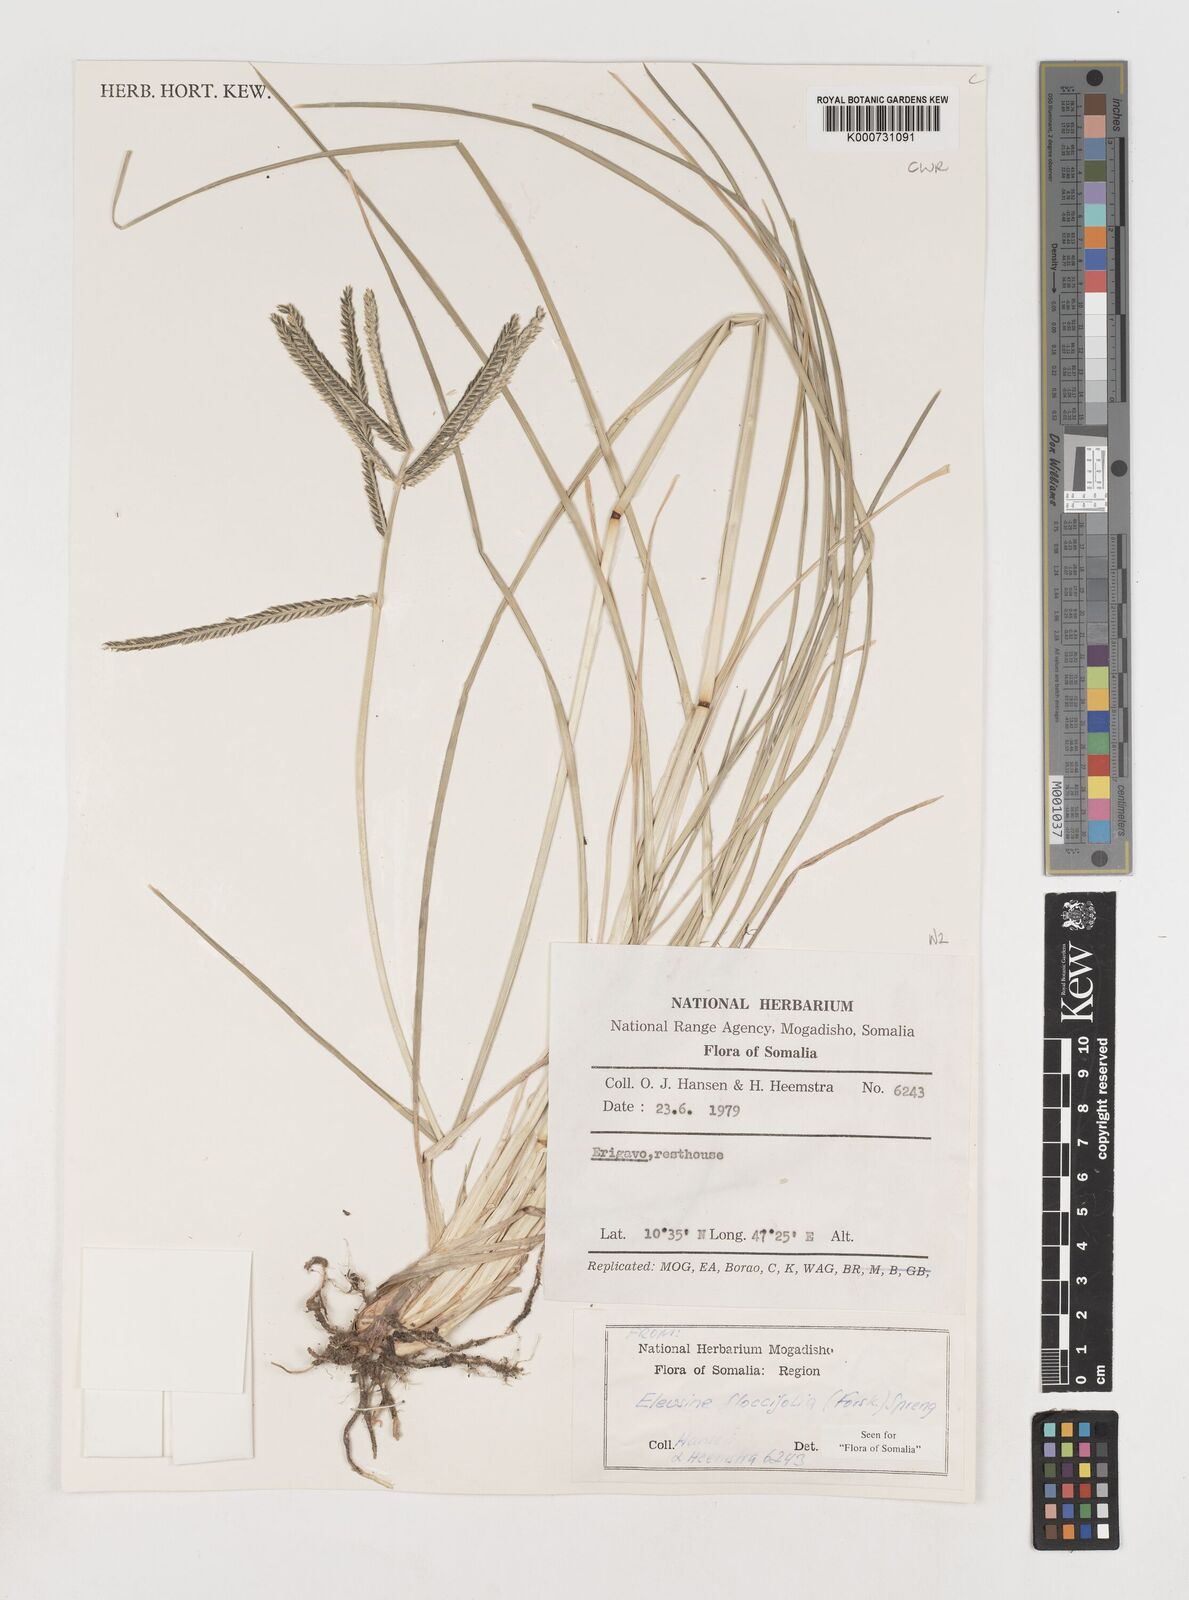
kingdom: Plantae
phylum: Tracheophyta
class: Liliopsida
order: Poales
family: Poaceae
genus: Eleusine
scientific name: Eleusine floccifolia
